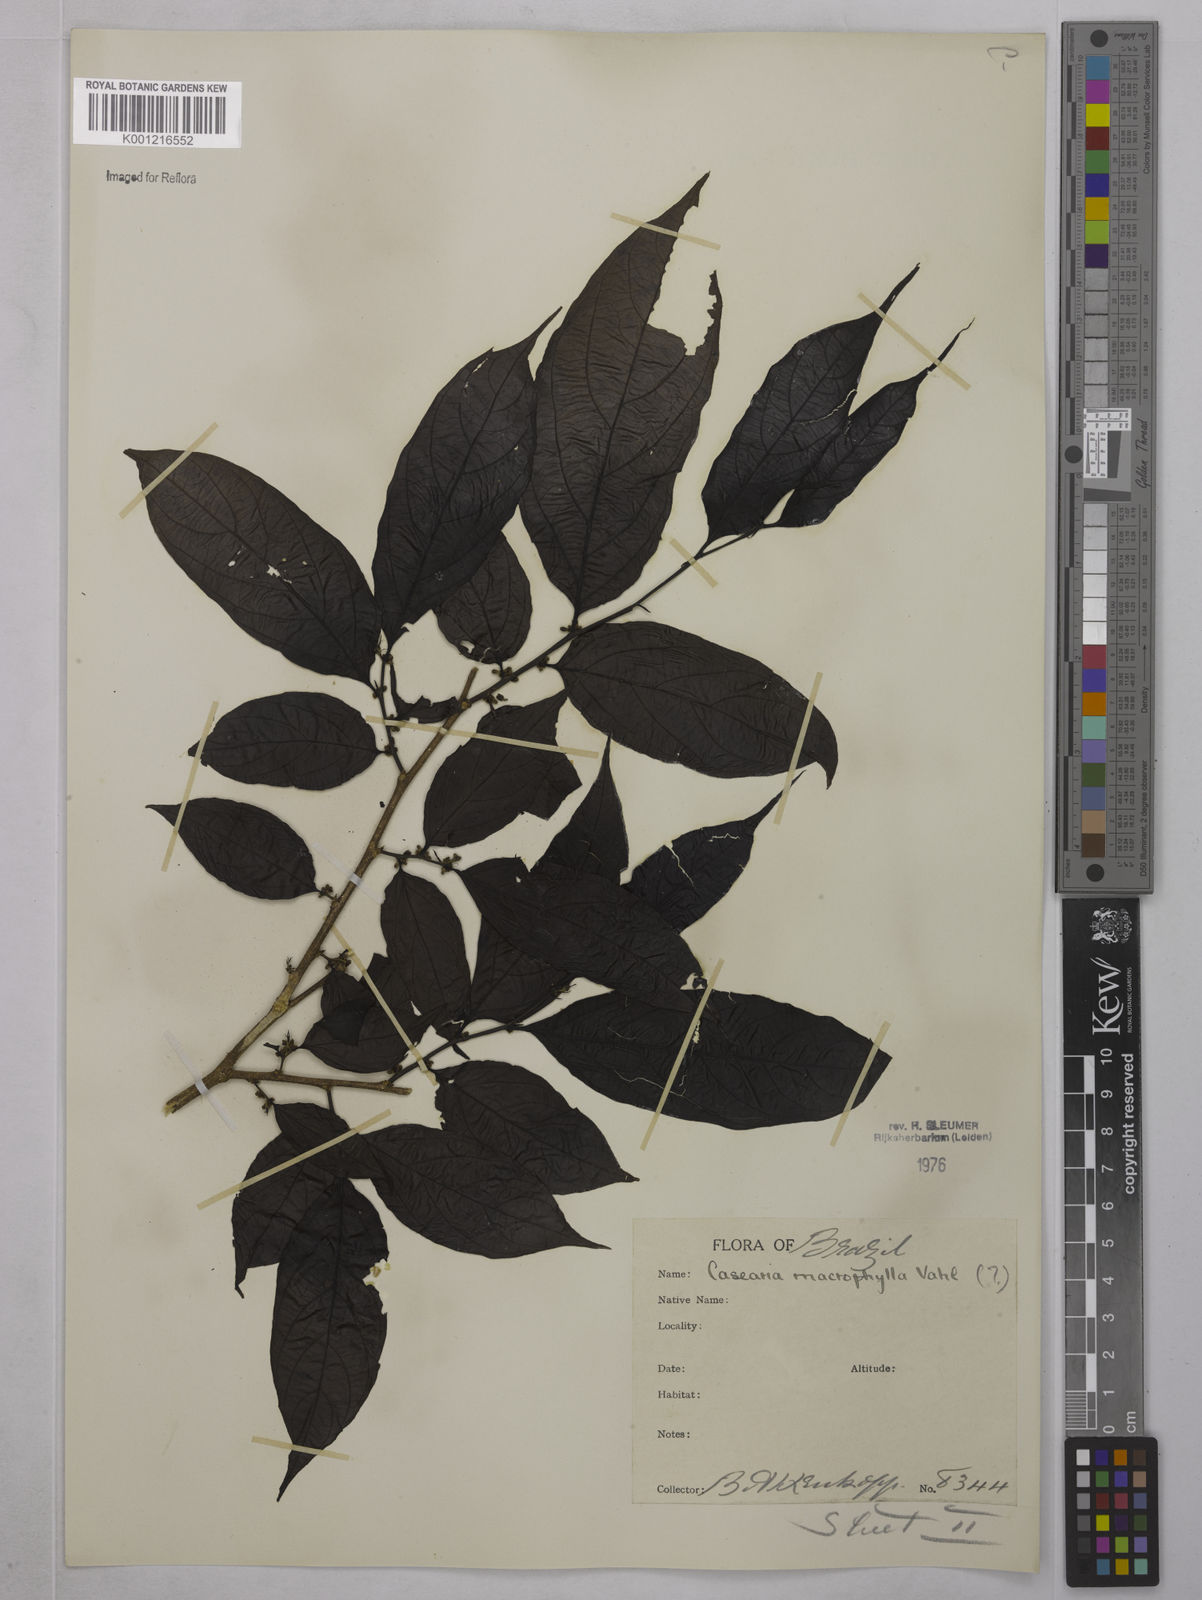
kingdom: Plantae
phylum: Tracheophyta
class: Magnoliopsida
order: Malpighiales
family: Salicaceae
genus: Casearia
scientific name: Casearia pitumba
